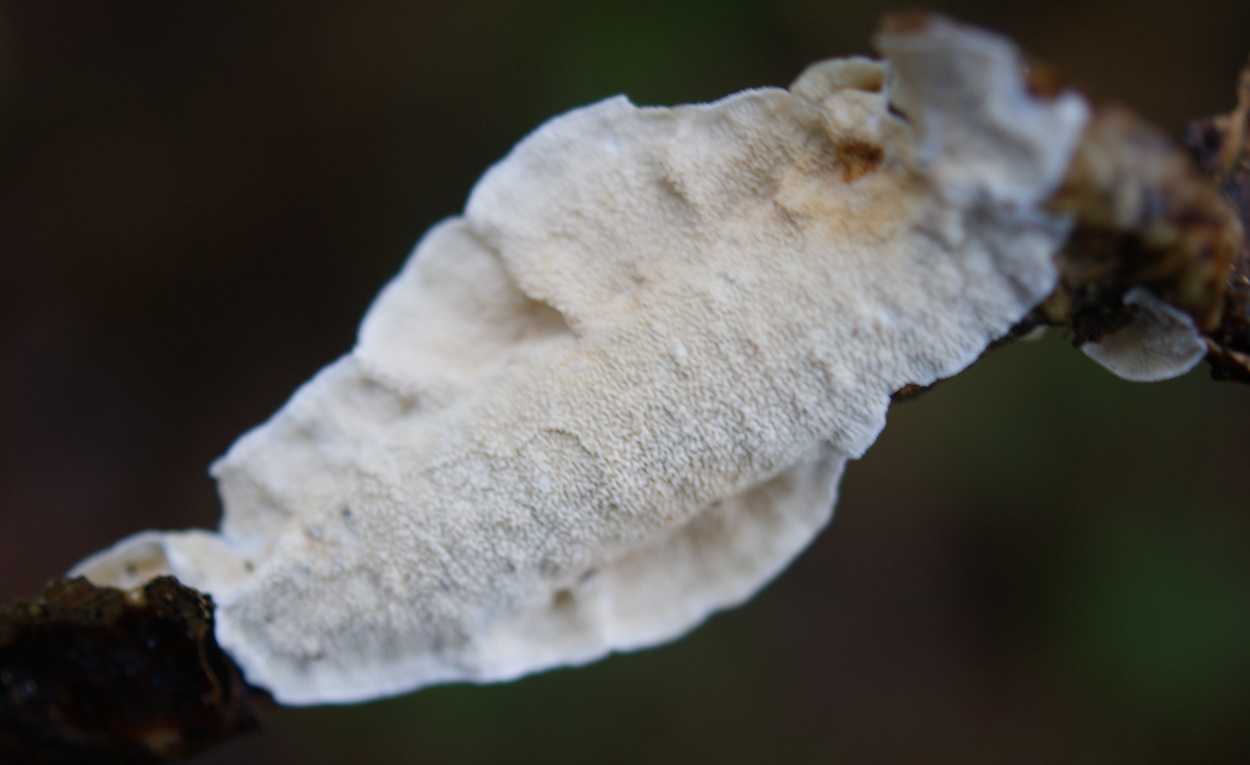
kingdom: Fungi
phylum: Basidiomycota
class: Agaricomycetes
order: Polyporales
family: Irpicaceae
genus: Byssomerulius
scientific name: Byssomerulius corium
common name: læder-åresvamp
